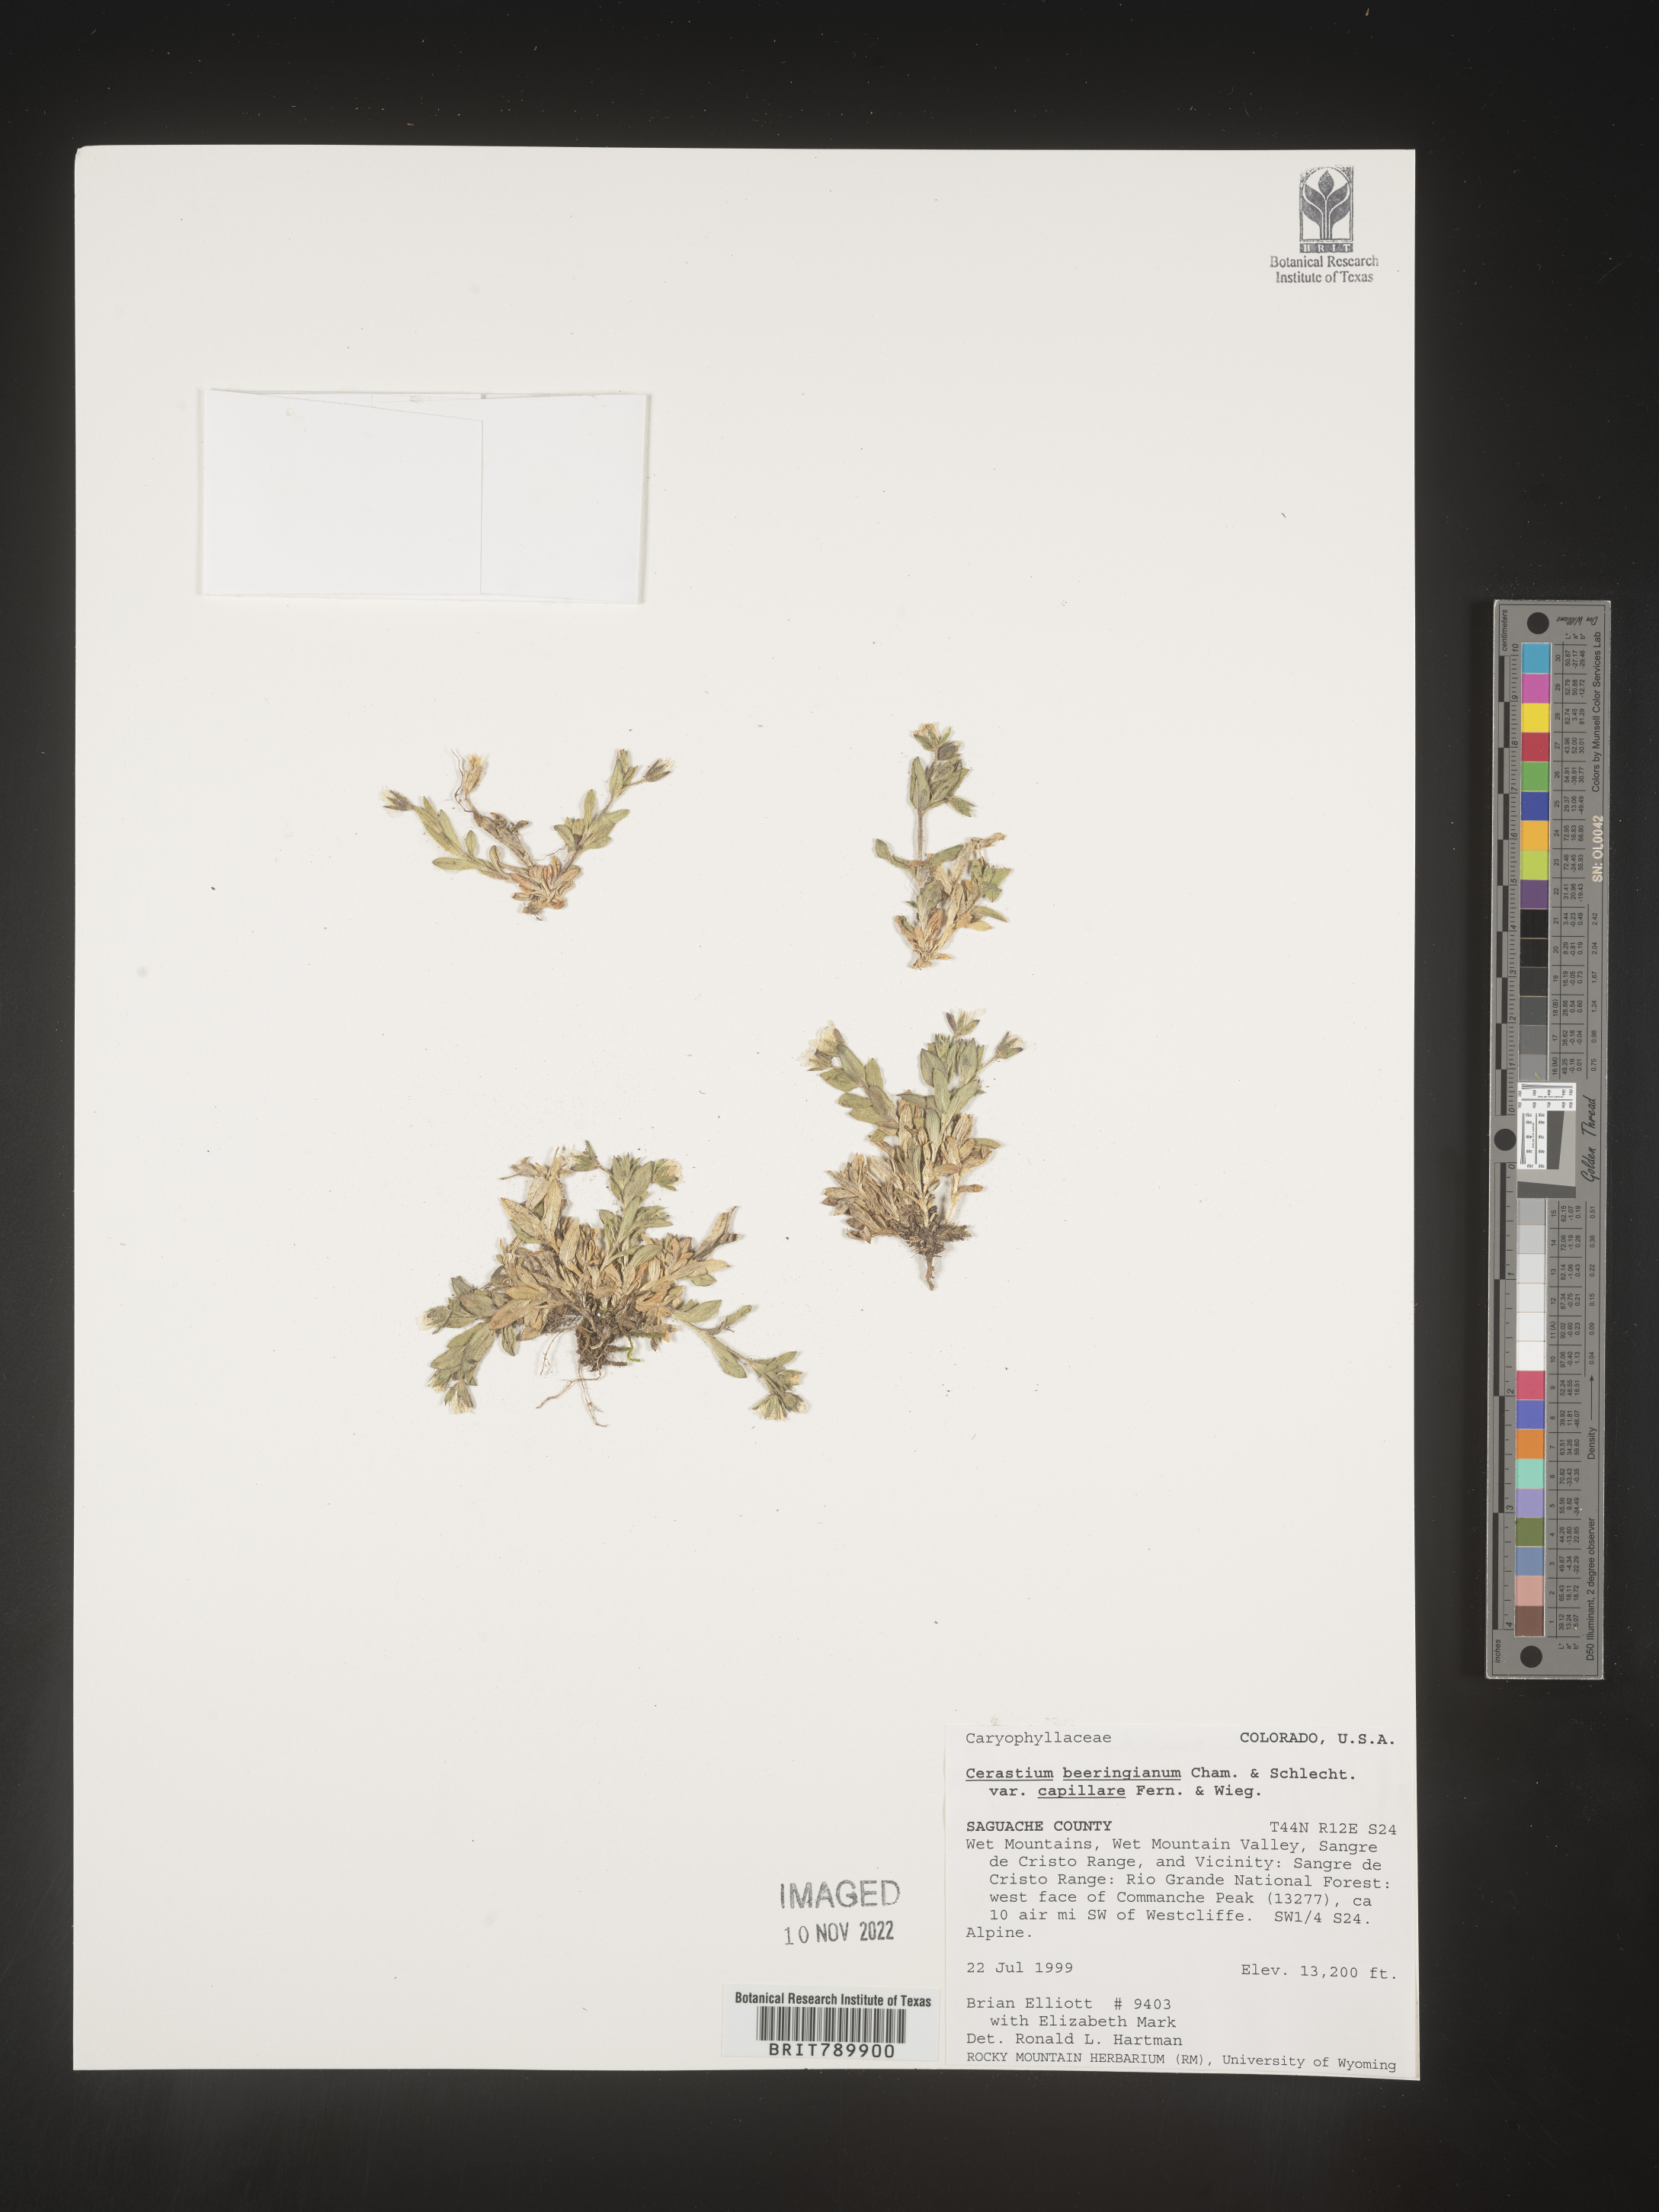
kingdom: Plantae
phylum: Tracheophyta
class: Magnoliopsida
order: Caryophyllales
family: Caryophyllaceae
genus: Cerastium
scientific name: Cerastium beeringianum
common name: Bering mouse-ear chickweed
